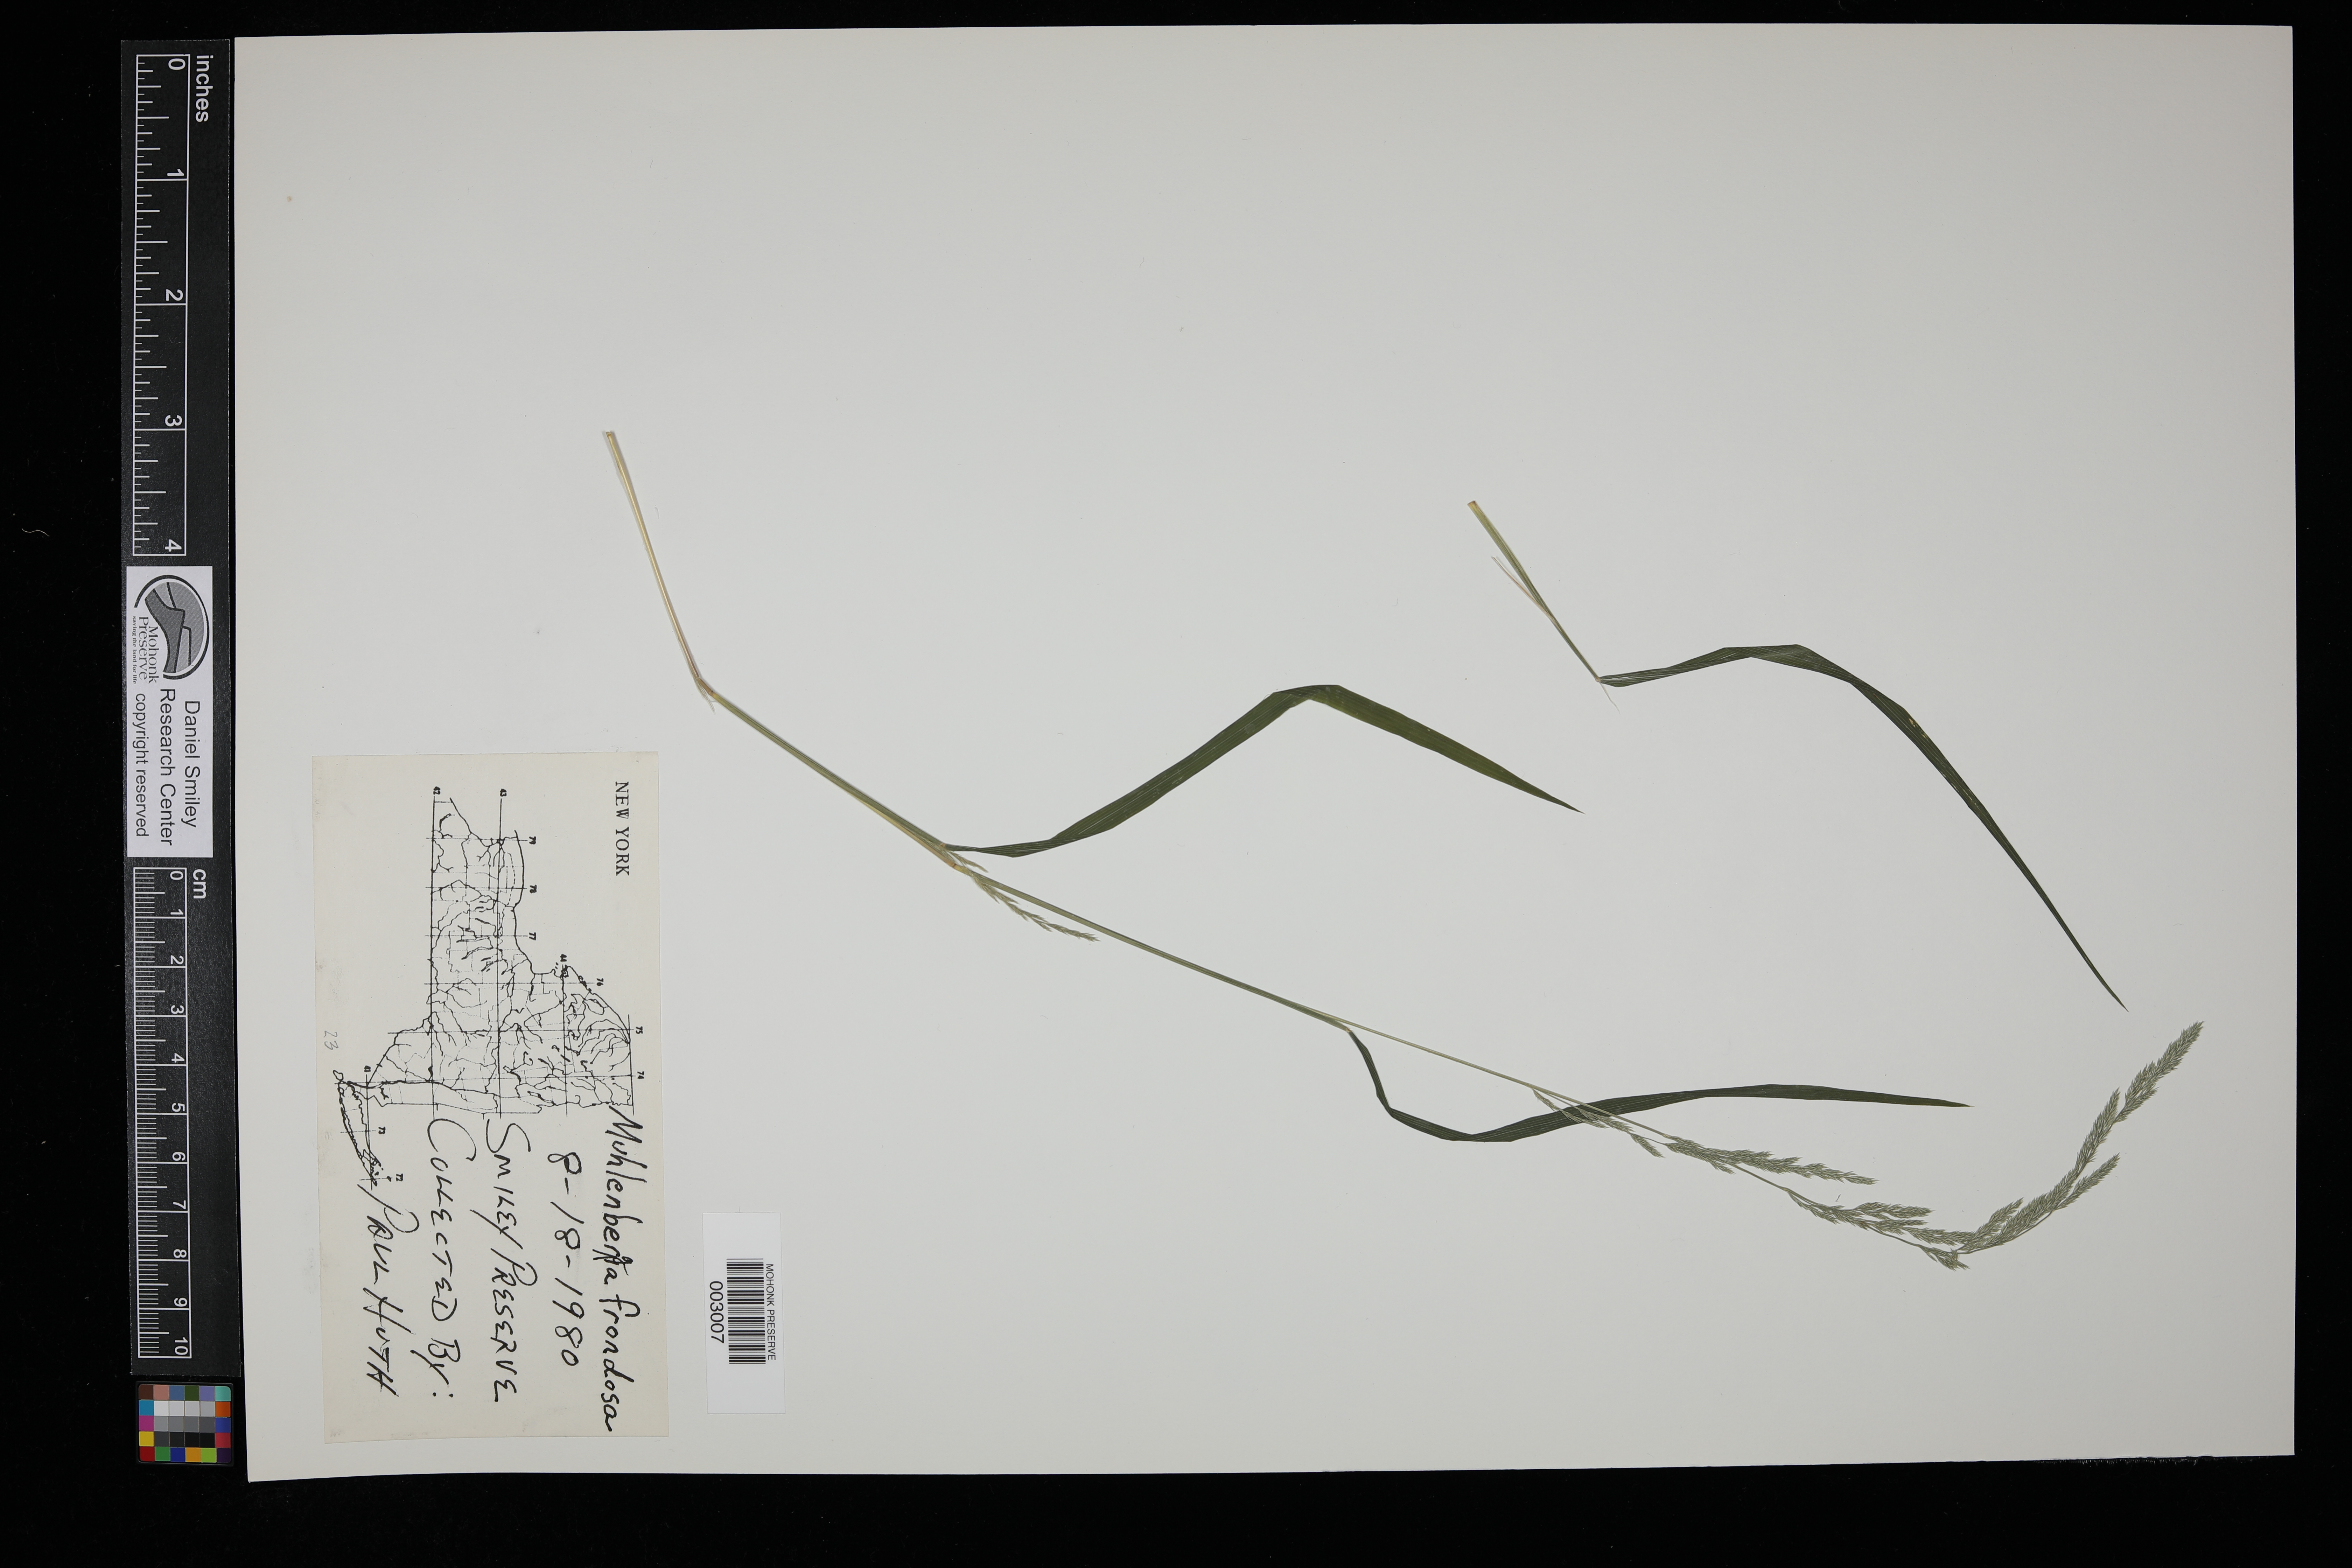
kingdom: Plantae
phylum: Tracheophyta
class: Liliopsida
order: Poales
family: Poaceae
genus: Muhlenbergia
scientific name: Muhlenbergia frondosa
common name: Common satingrass
